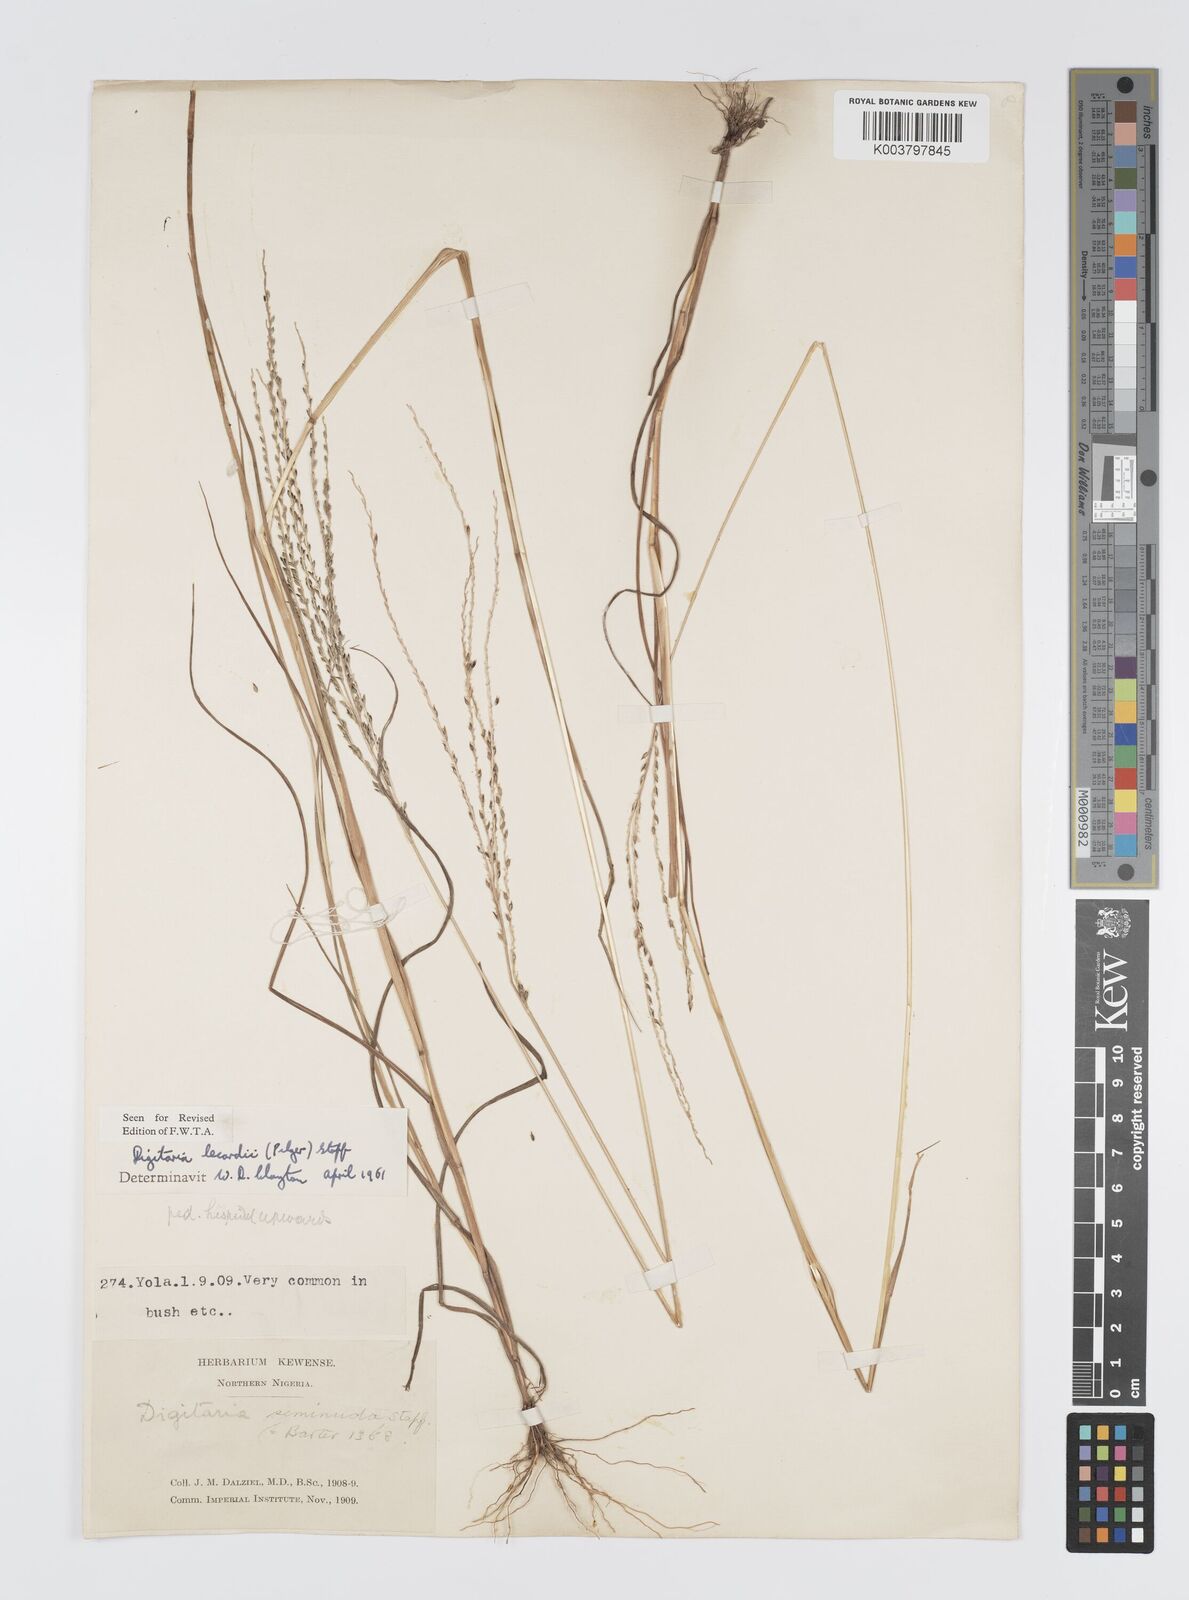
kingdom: Plantae
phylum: Tracheophyta
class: Liliopsida
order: Poales
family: Poaceae
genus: Digitaria
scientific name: Digitaria argillacea
